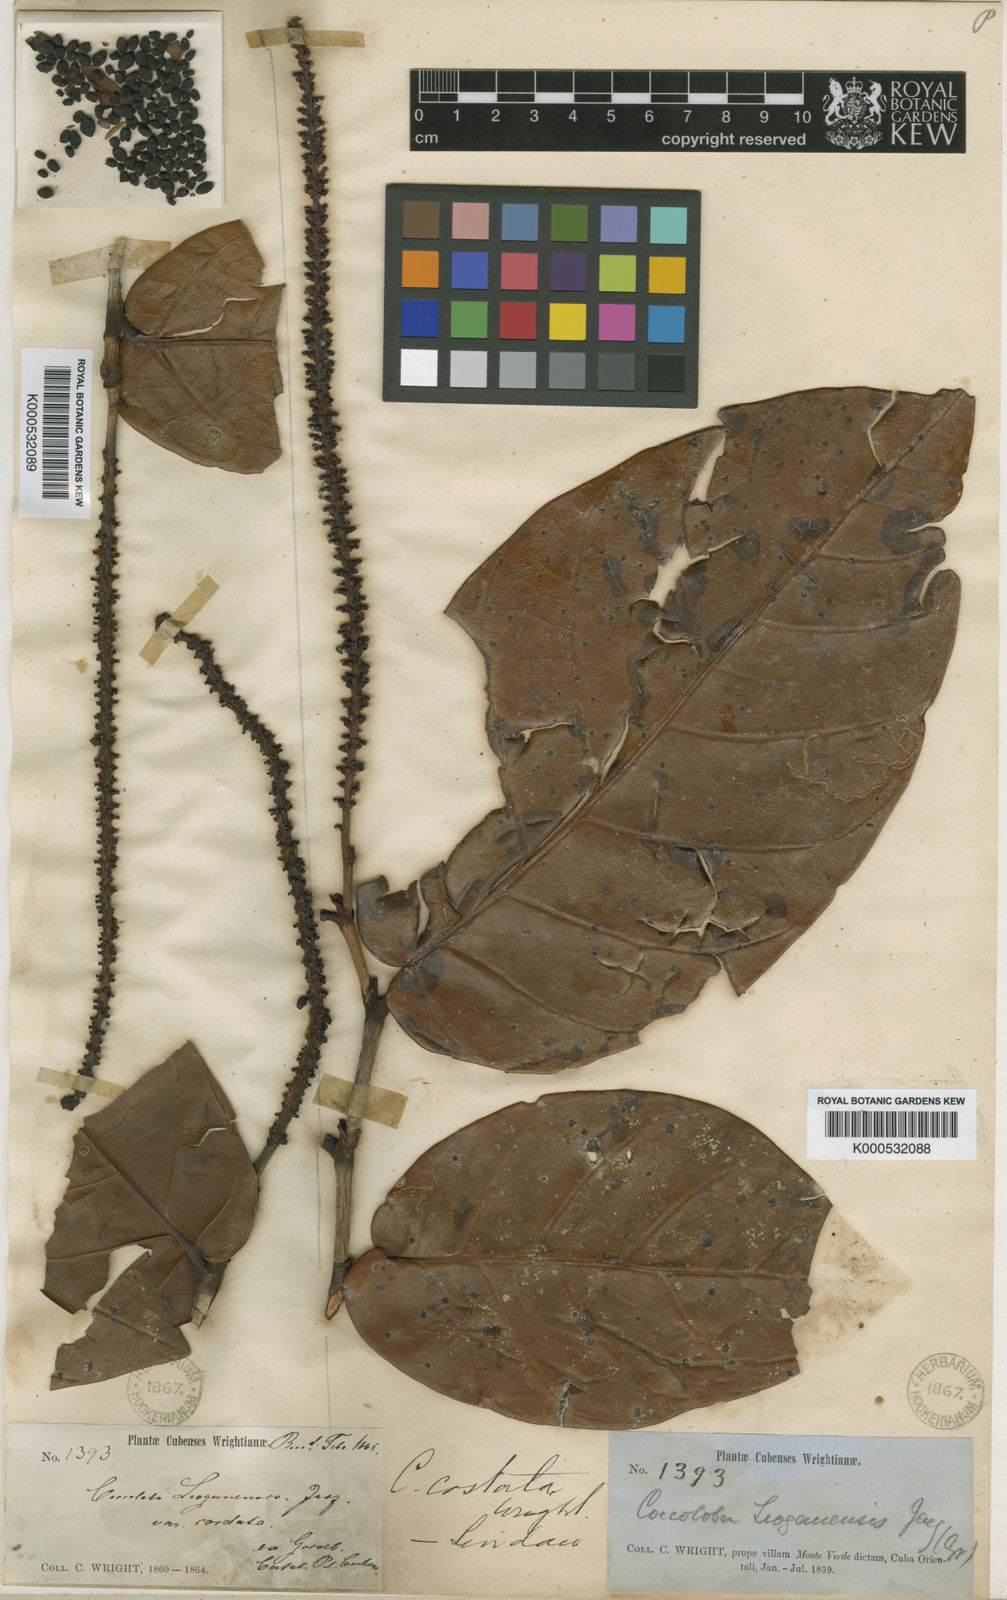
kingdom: Plantae
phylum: Tracheophyta
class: Magnoliopsida
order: Caryophyllales
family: Polygonaceae
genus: Coccoloba
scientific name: Coccoloba costata
